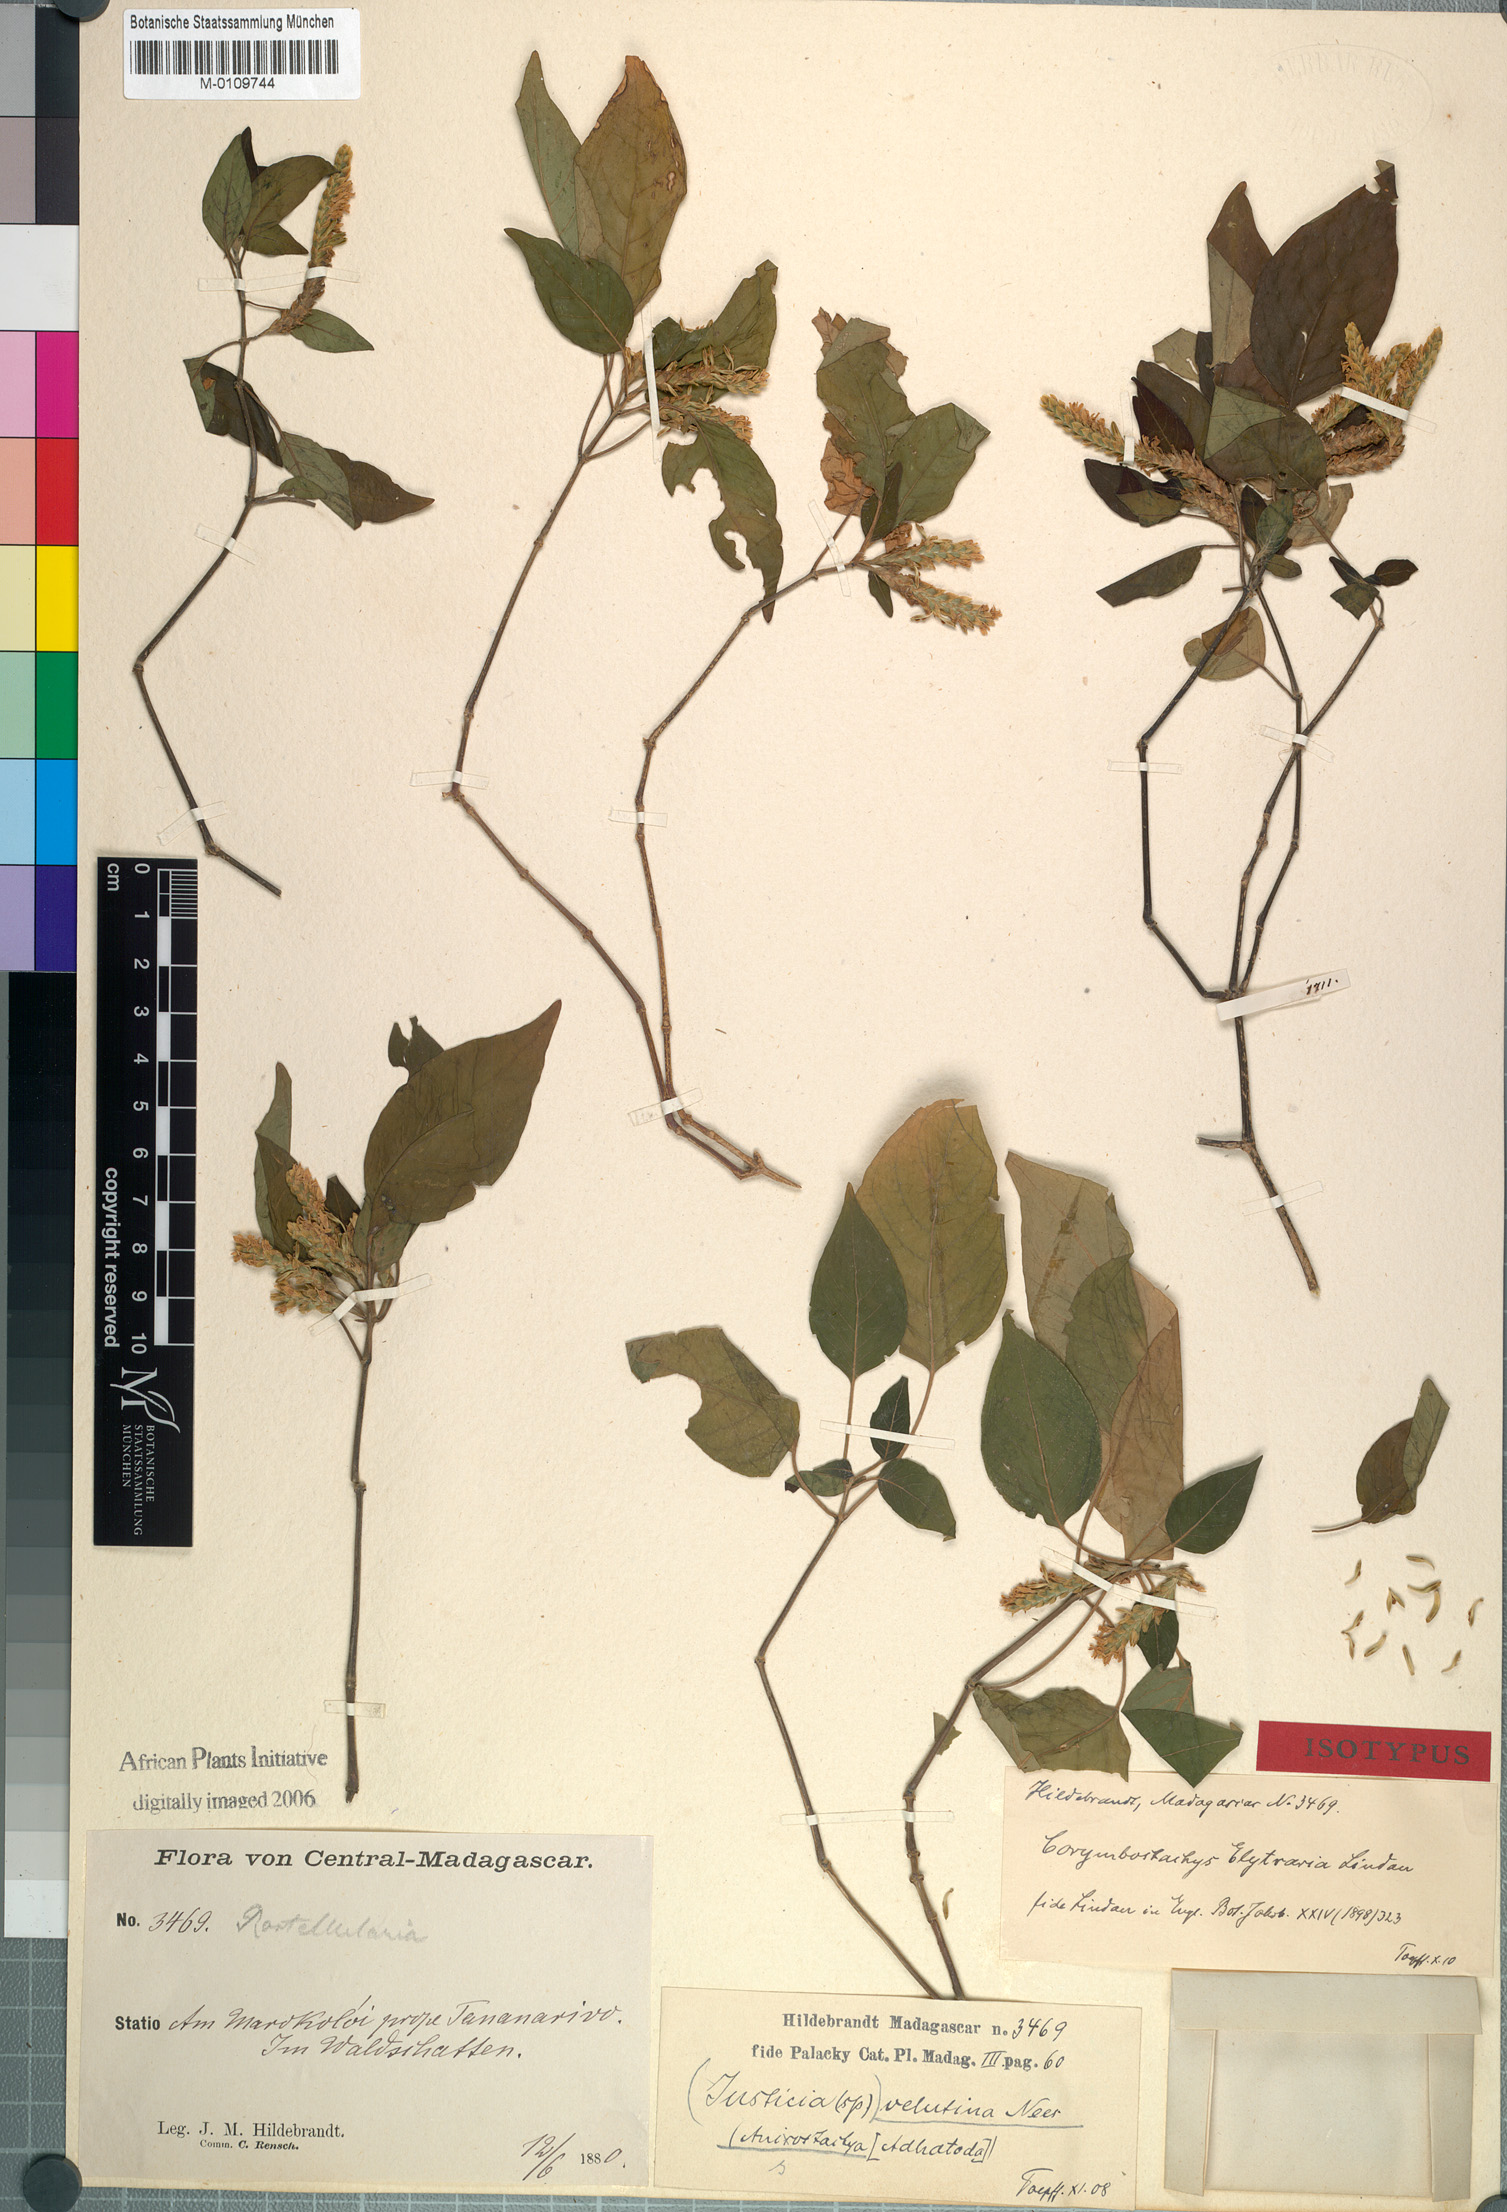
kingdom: Plantae
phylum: Tracheophyta
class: Magnoliopsida
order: Lamiales
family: Acanthaceae
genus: Anisostachya
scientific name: Anisostachya elytraria
